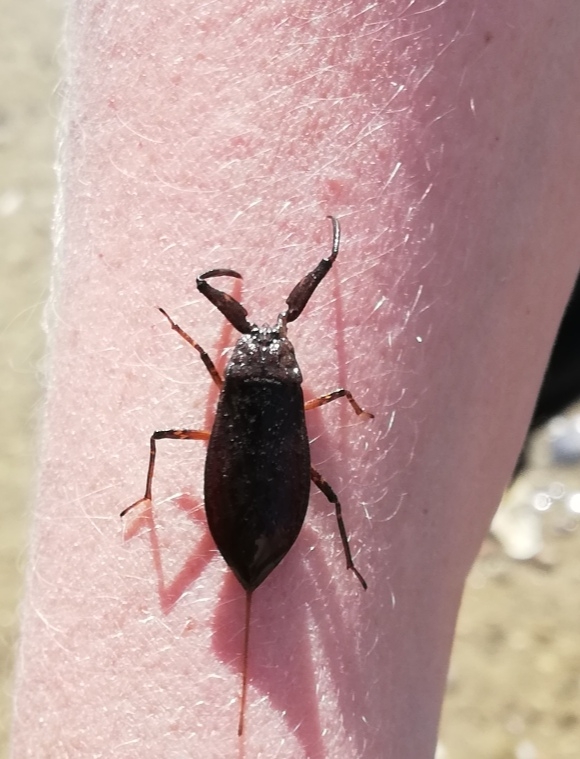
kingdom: Animalia
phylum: Arthropoda
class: Insecta
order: Hemiptera
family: Nepidae
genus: Nepa
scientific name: Nepa cinerea
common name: Skorpiontæge
